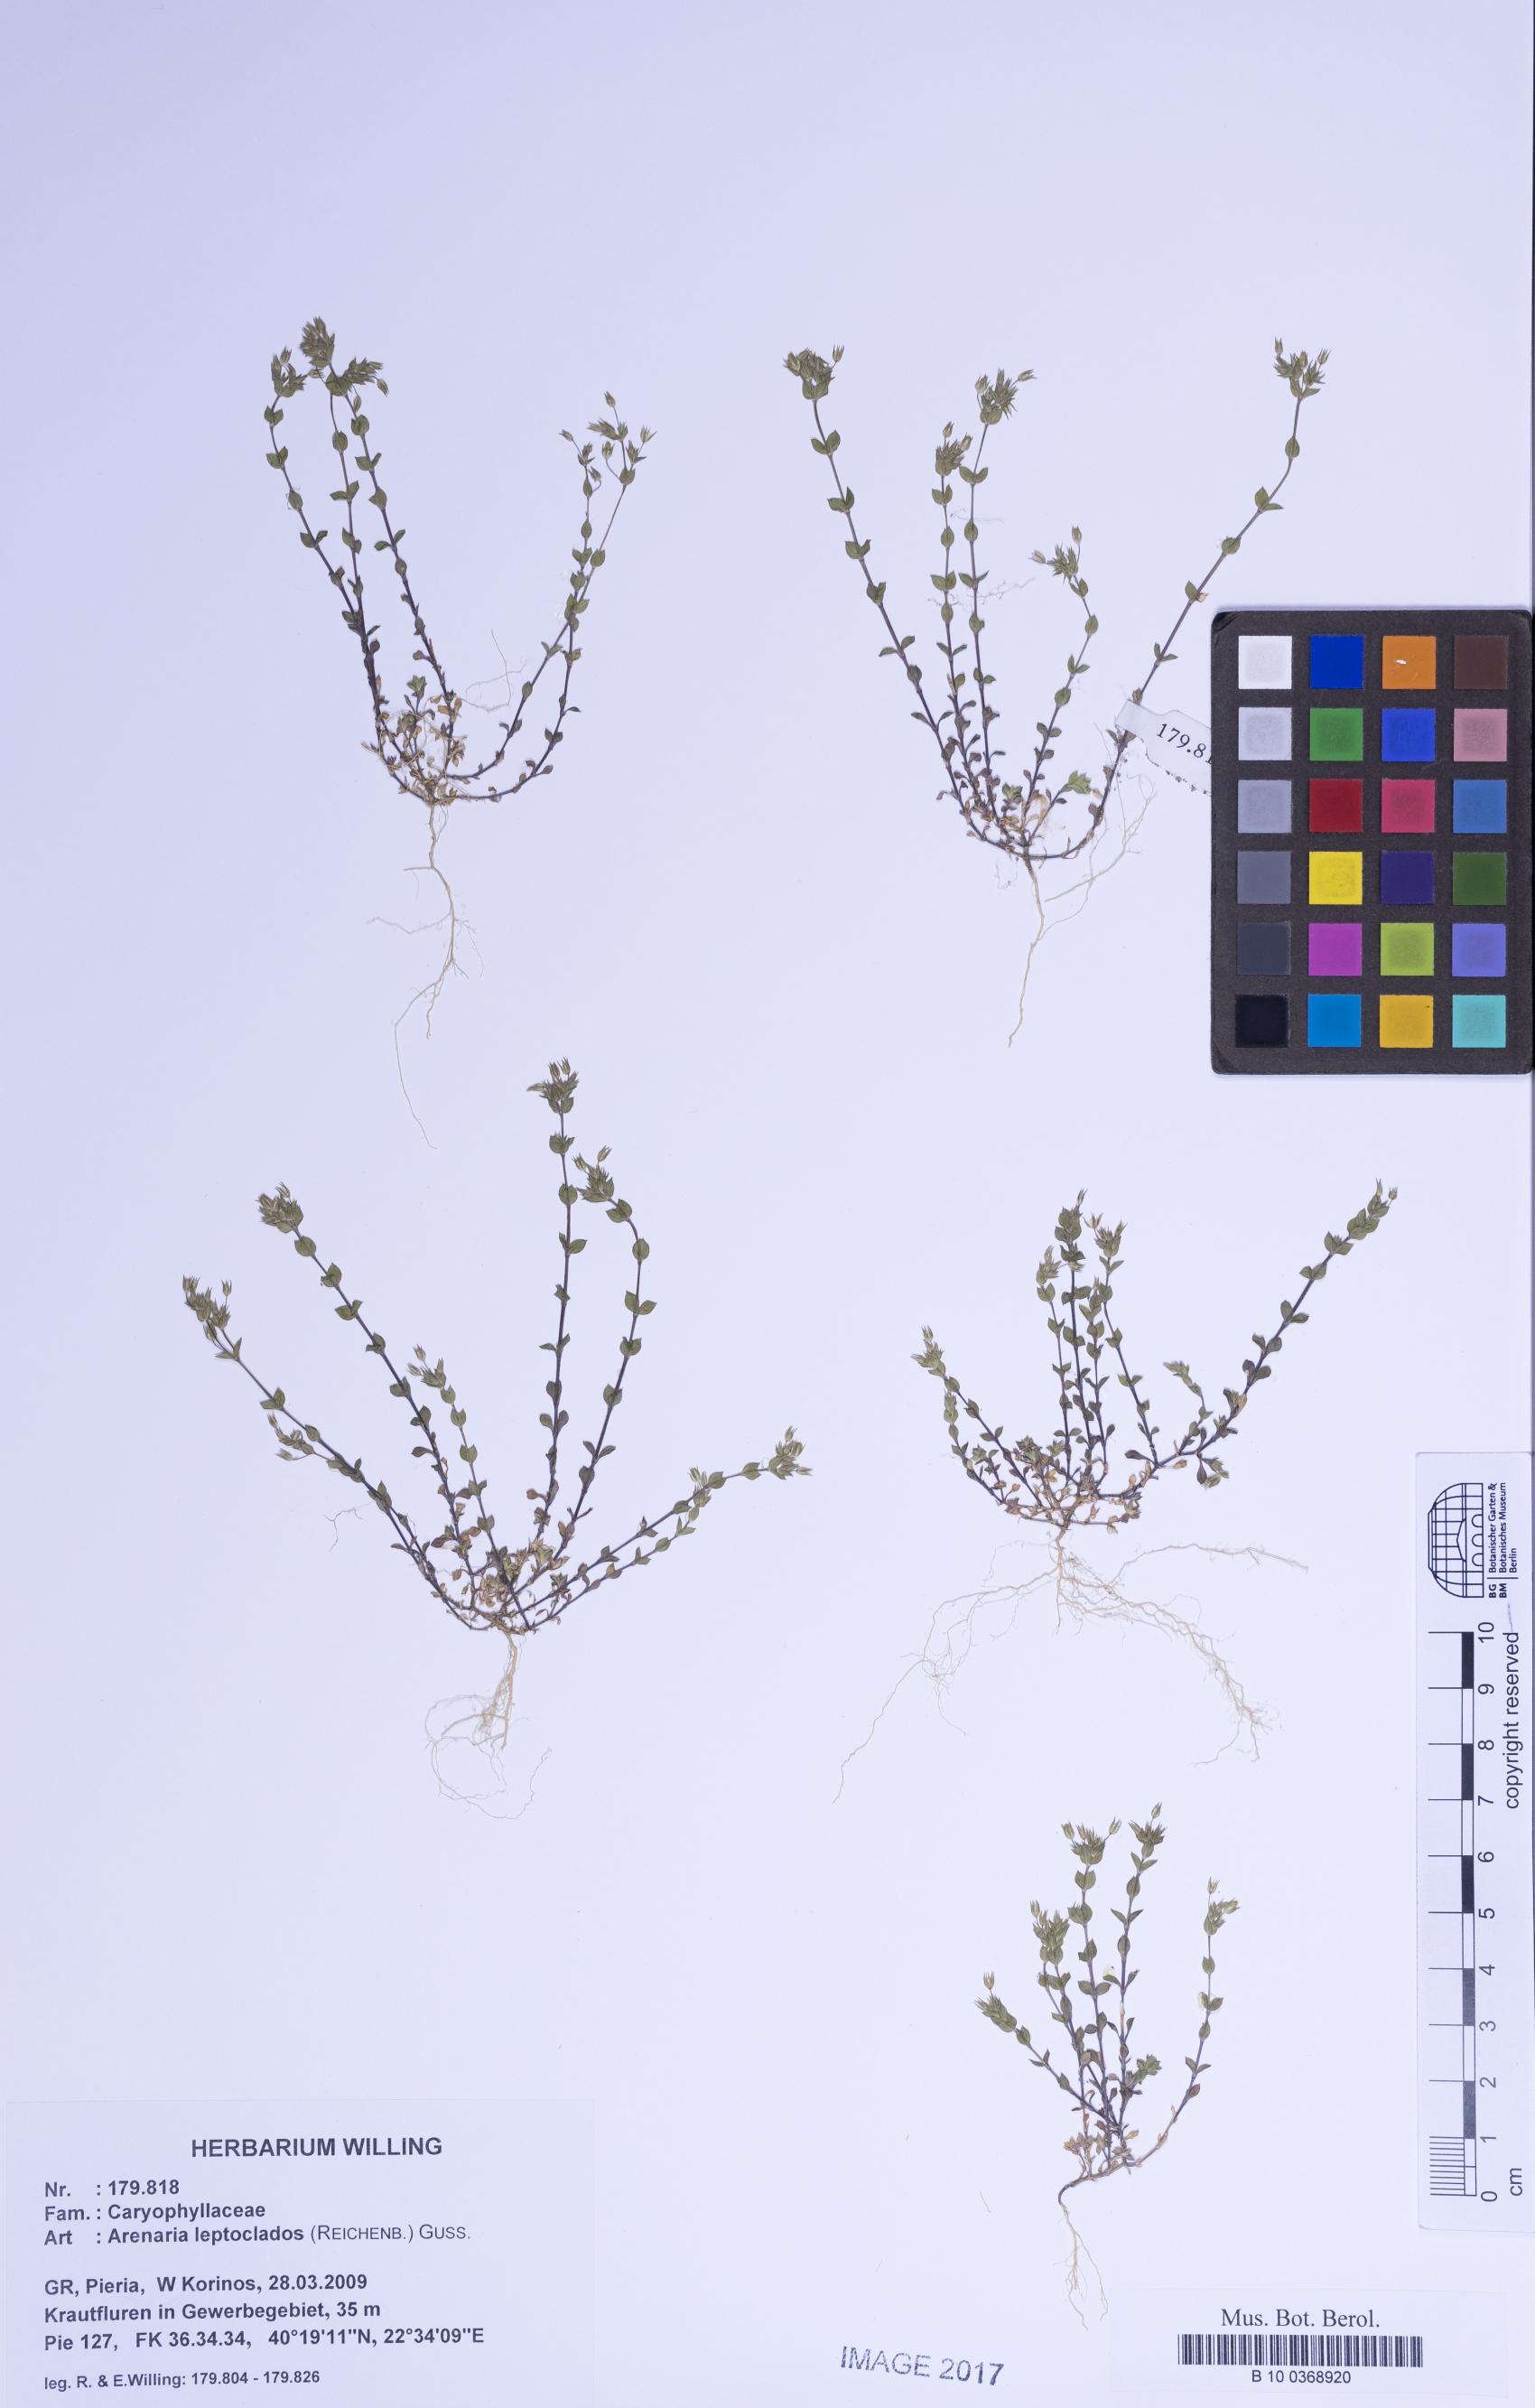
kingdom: Plantae
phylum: Tracheophyta
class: Magnoliopsida
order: Caryophyllales
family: Caryophyllaceae
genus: Arenaria
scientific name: Arenaria leptoclados
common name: Thyme-leaved sandwort
